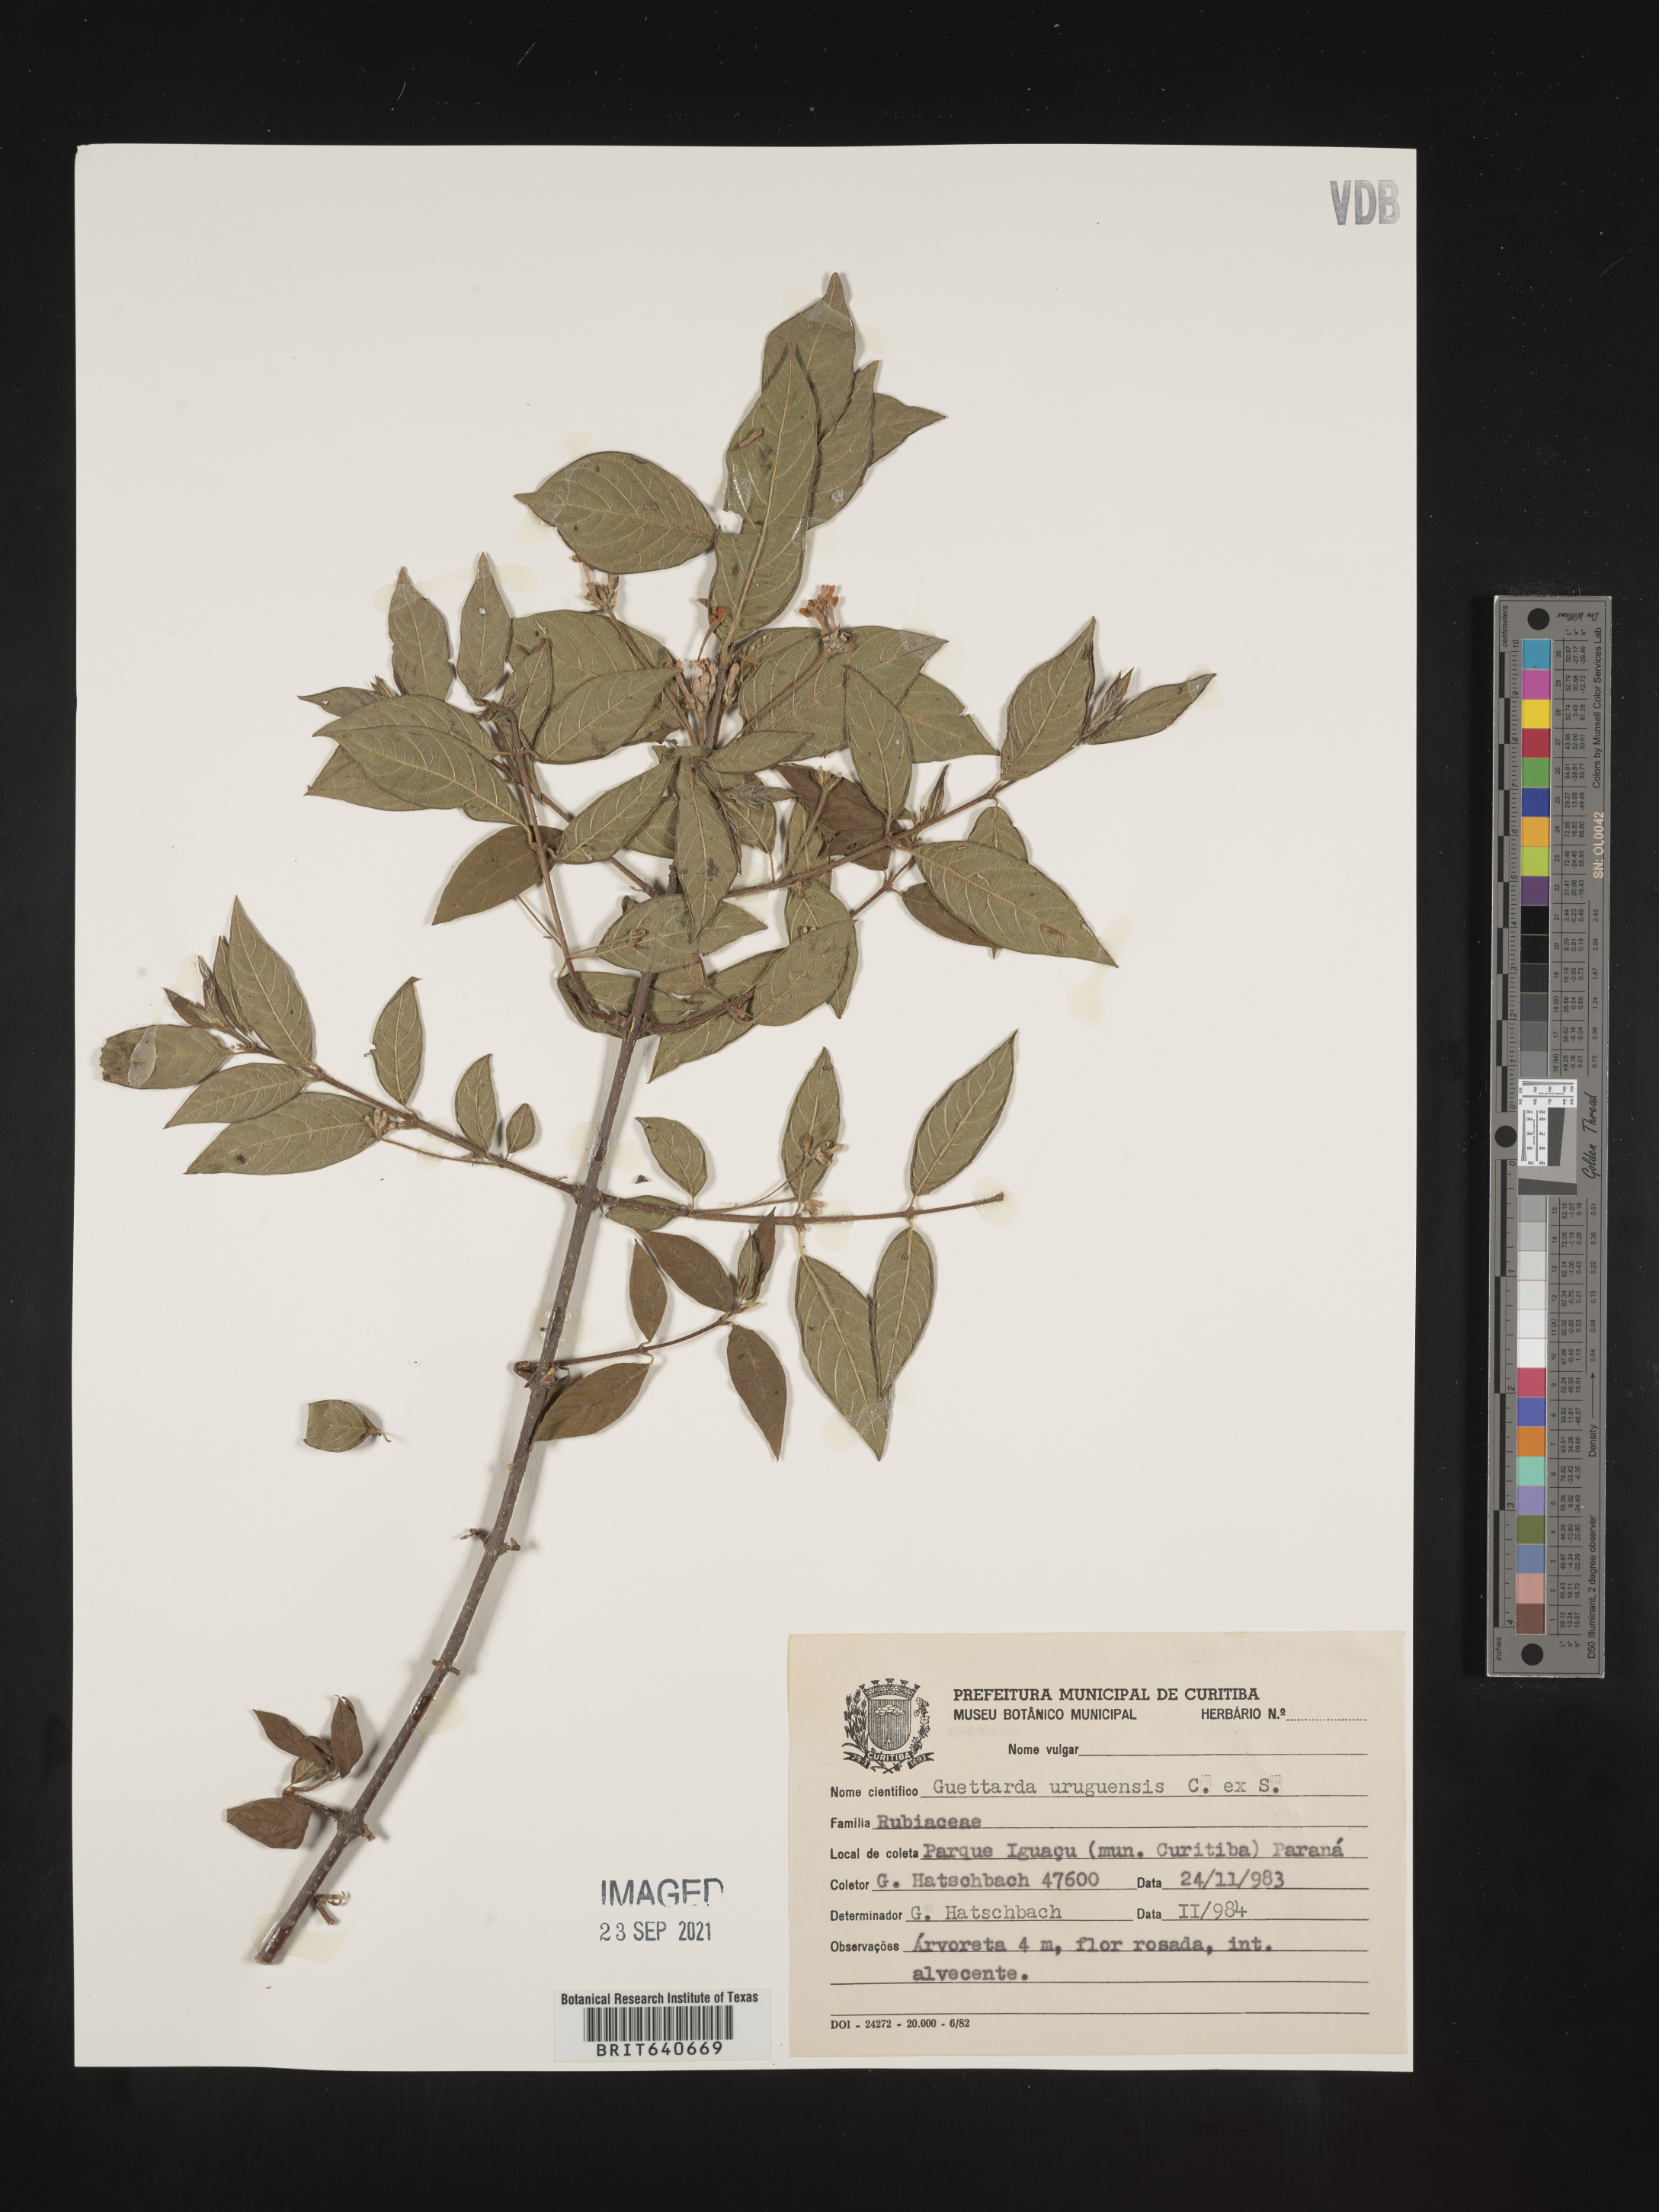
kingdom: Plantae
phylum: Tracheophyta
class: Magnoliopsida
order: Gentianales
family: Rubiaceae
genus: Guettarda
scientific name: Guettarda
